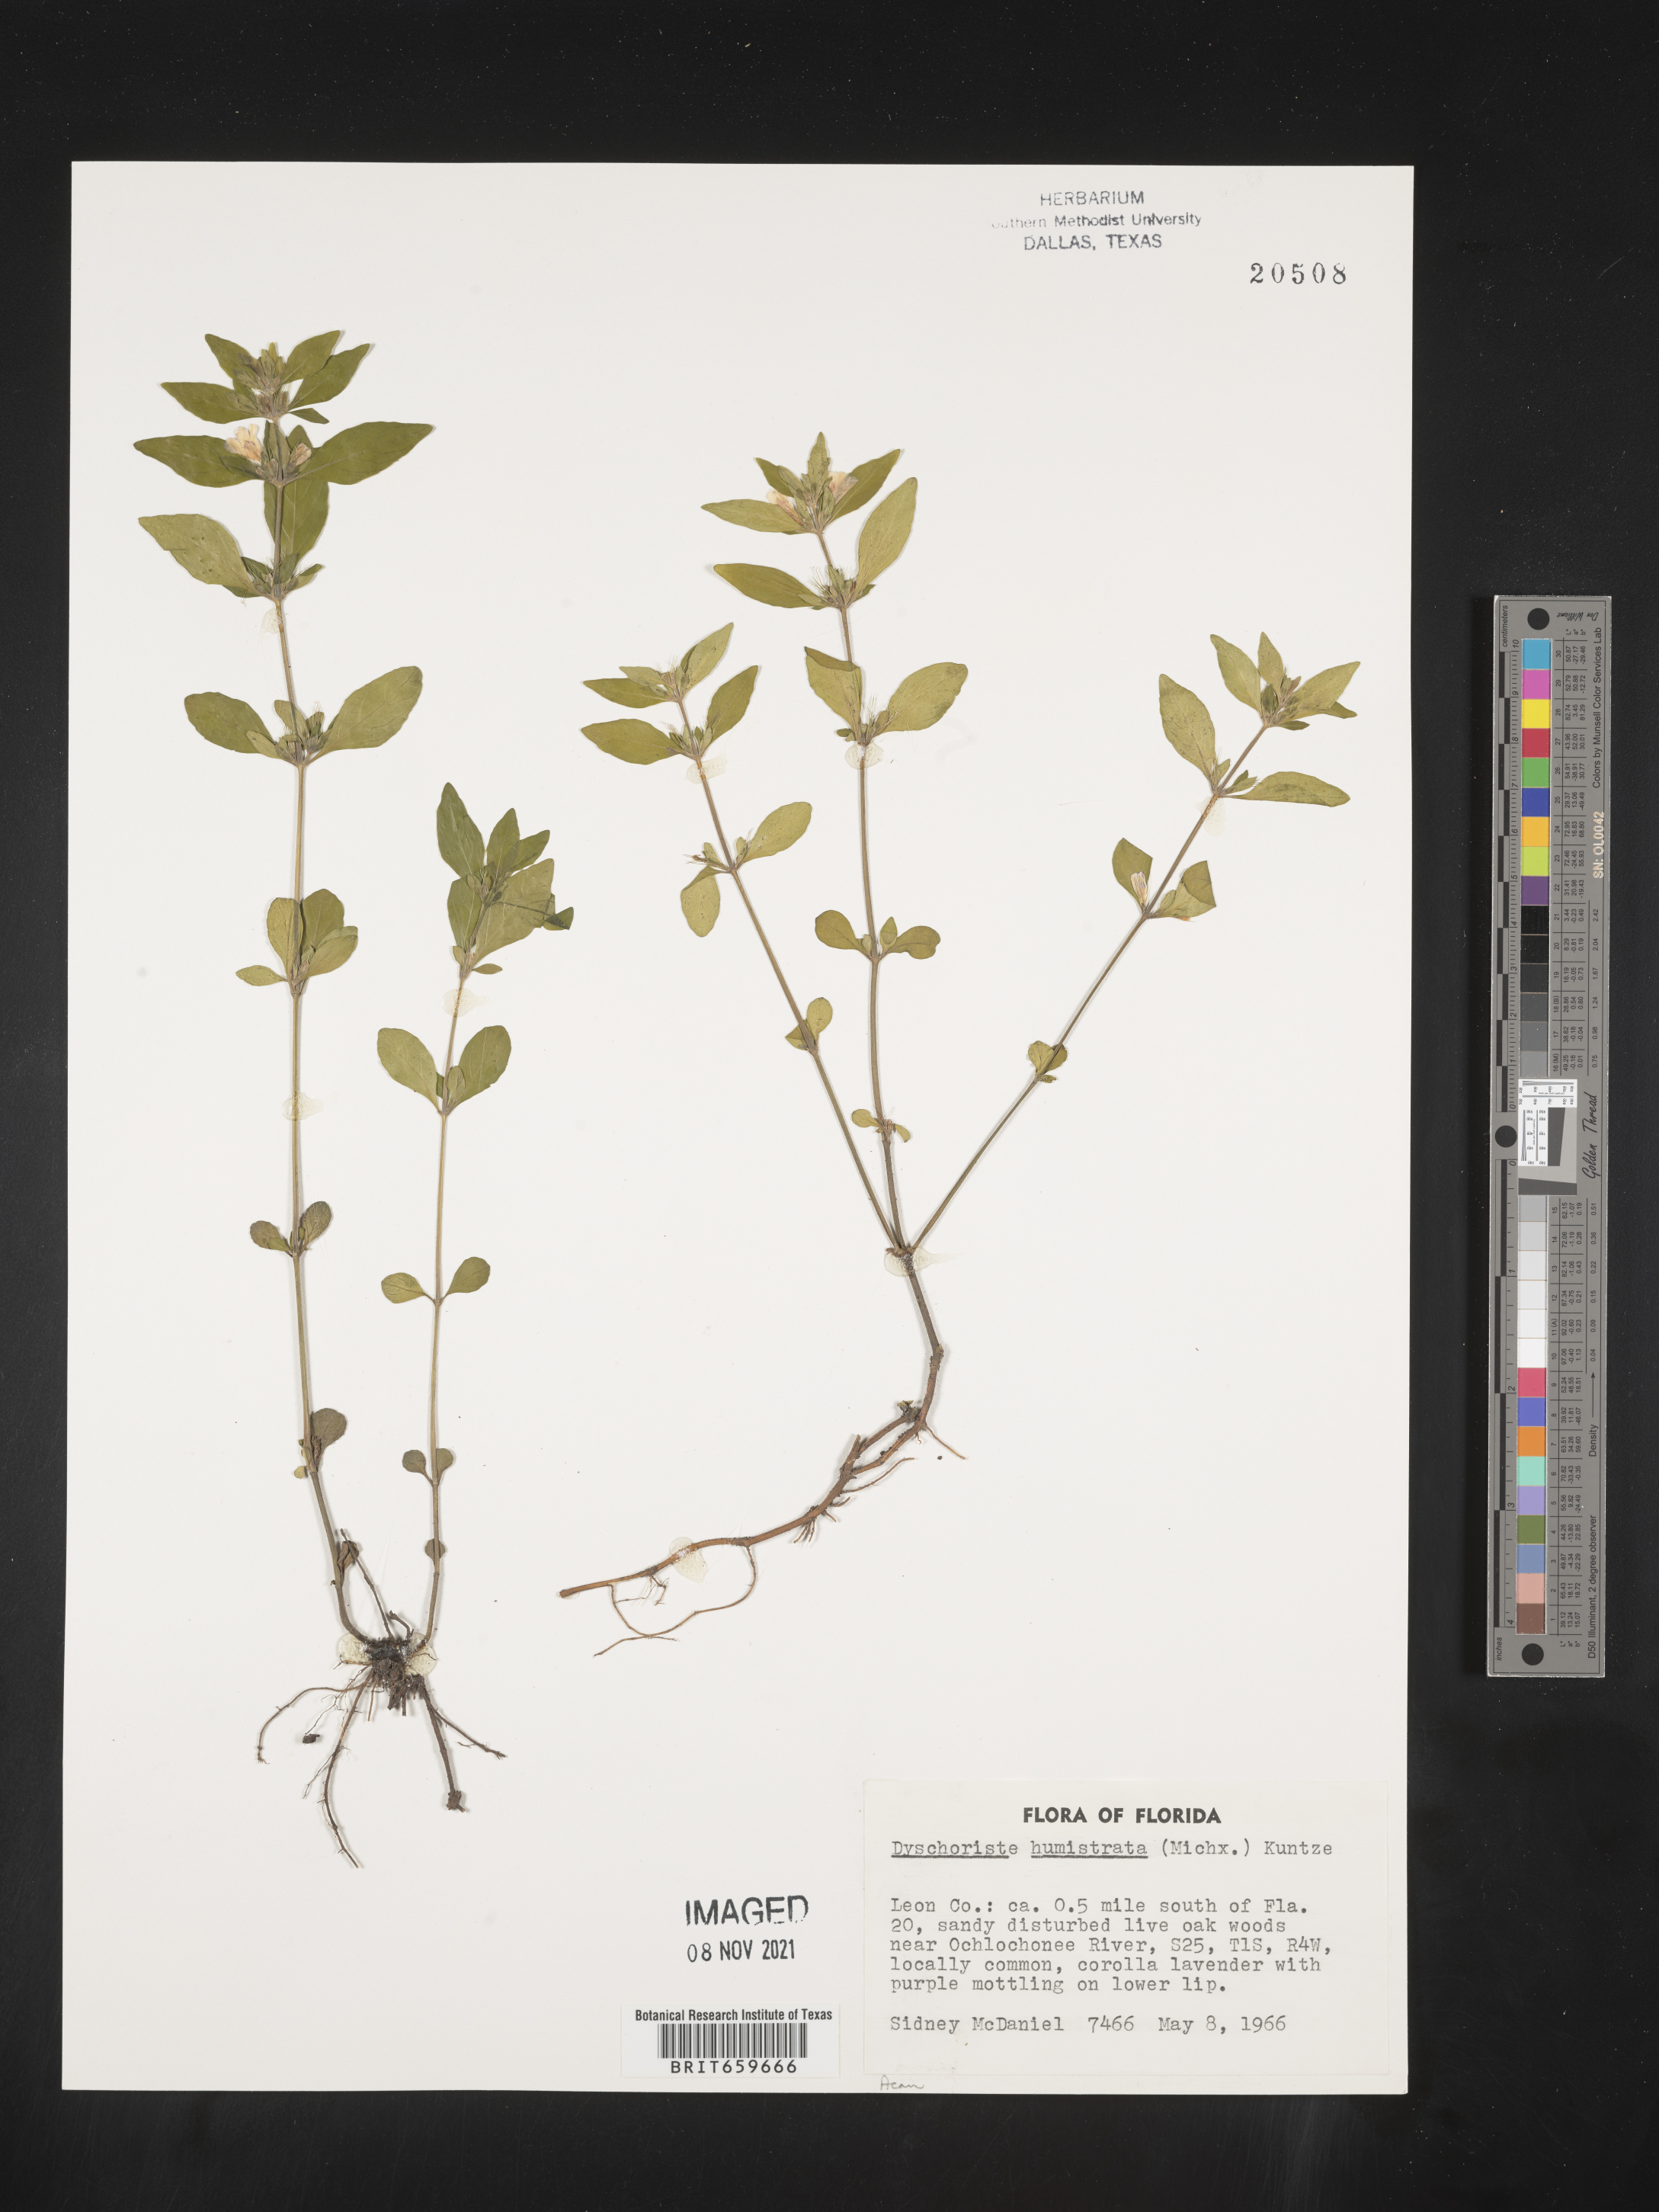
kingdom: Plantae
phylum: Tracheophyta
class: Magnoliopsida
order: Lamiales
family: Acanthaceae
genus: Dyschoriste
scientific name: Dyschoriste
